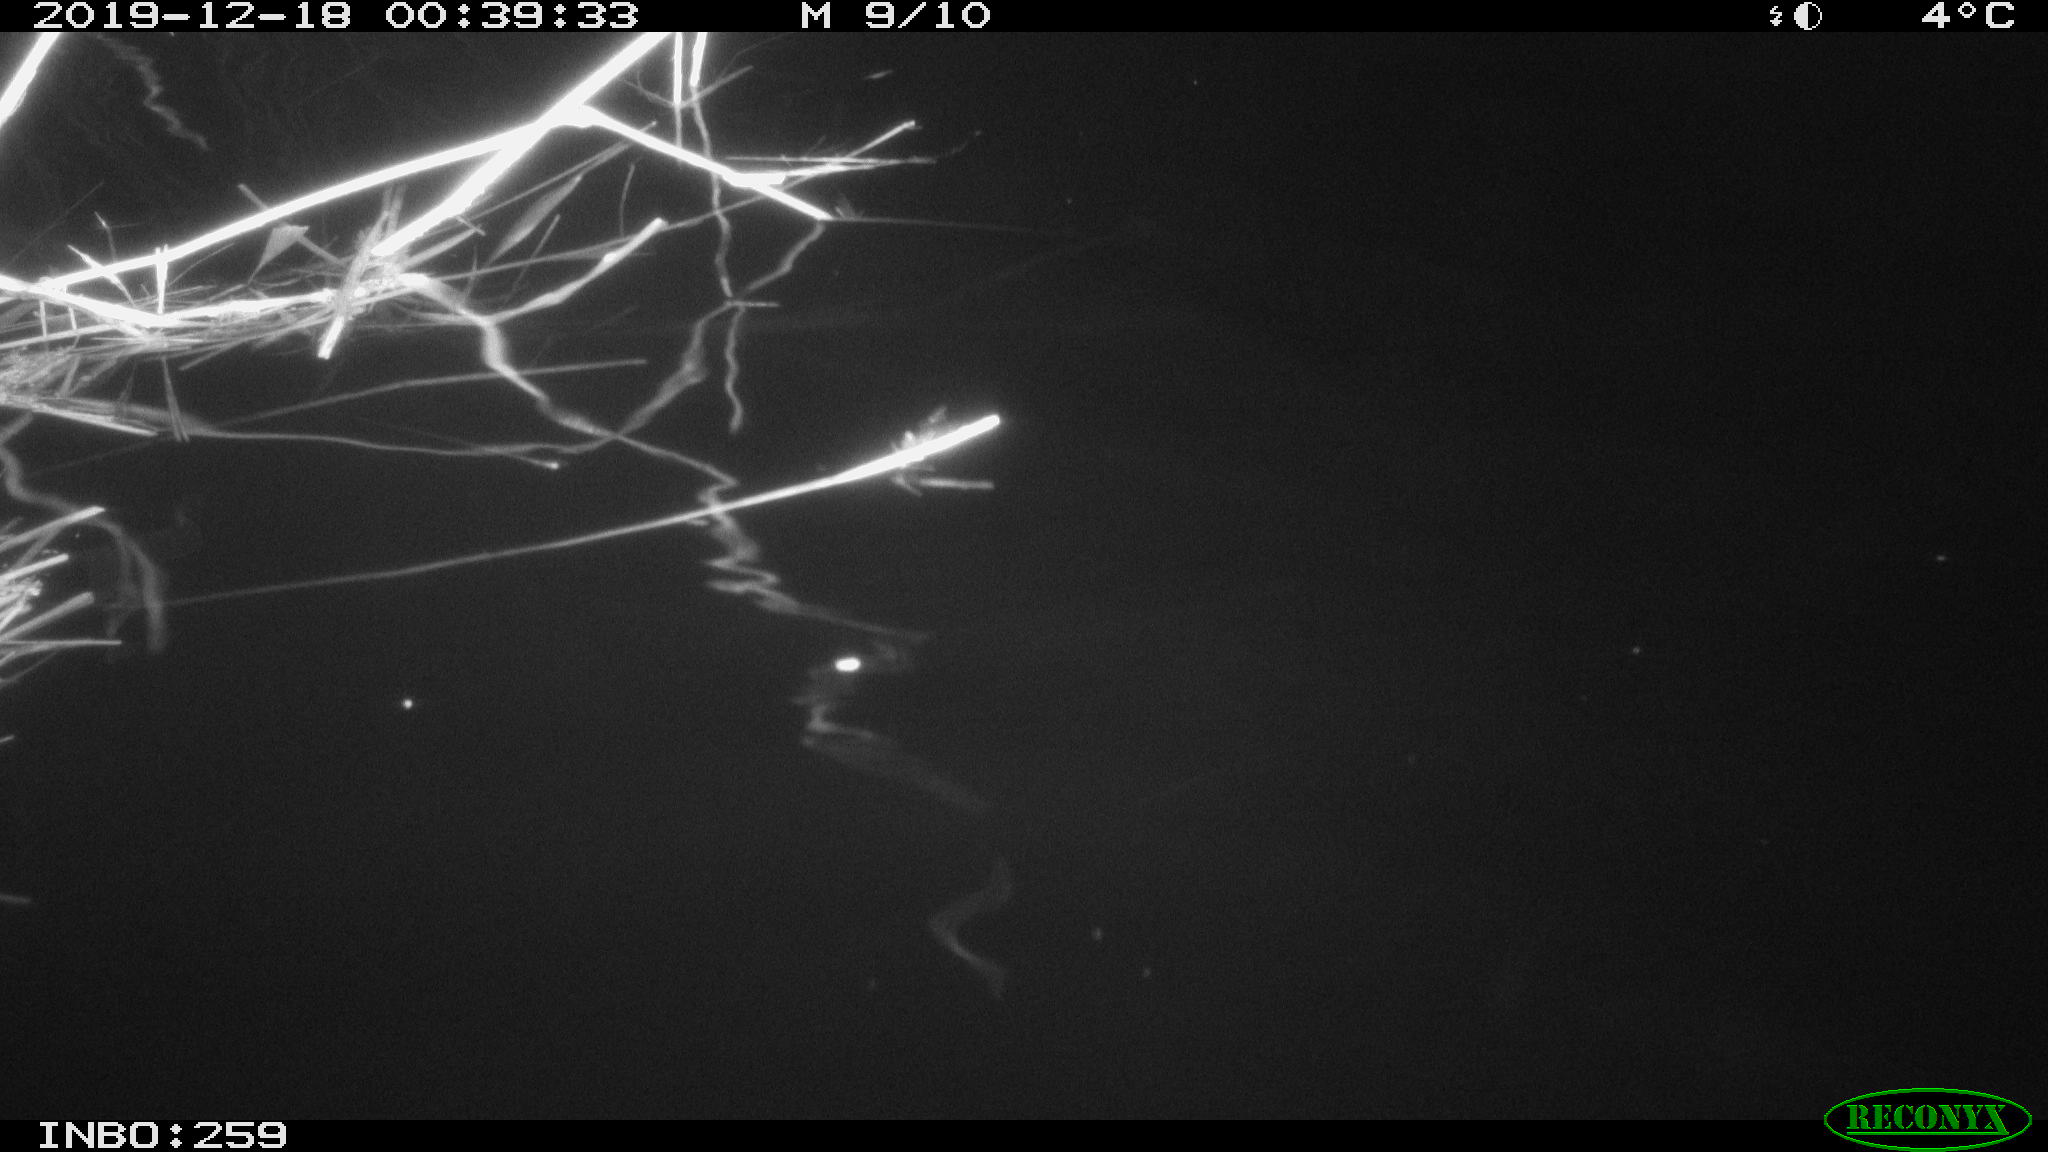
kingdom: Animalia
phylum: Chordata
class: Mammalia
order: Rodentia
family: Cricetidae
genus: Ondatra
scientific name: Ondatra zibethicus
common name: Muskrat
